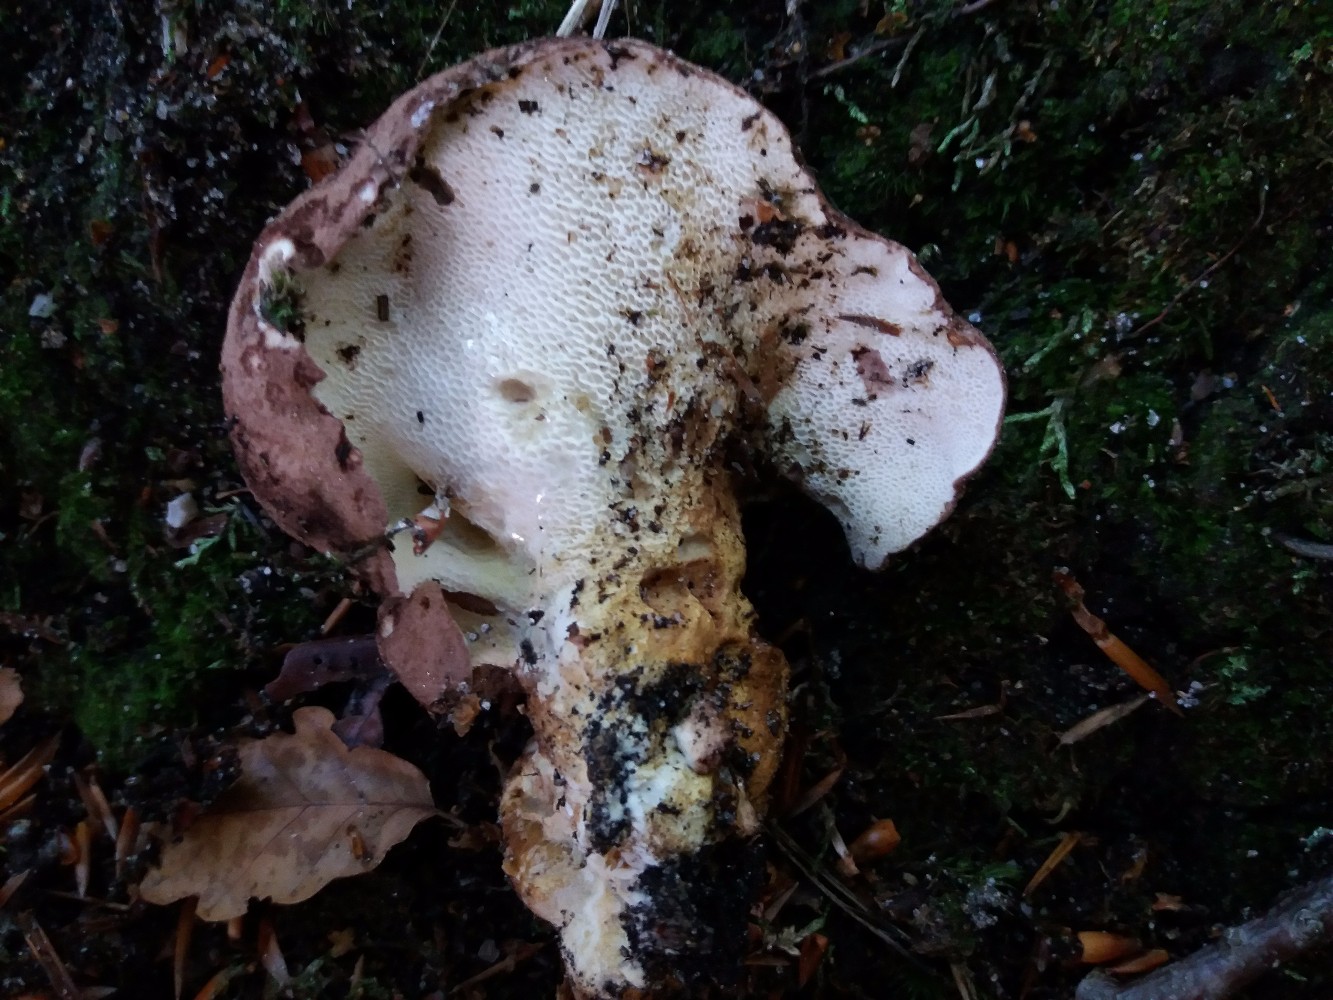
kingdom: Fungi
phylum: Basidiomycota
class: Agaricomycetes
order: Russulales
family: Albatrellaceae
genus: Scutiger
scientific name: Scutiger pes-caprae
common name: skællet fåreporesvamp
